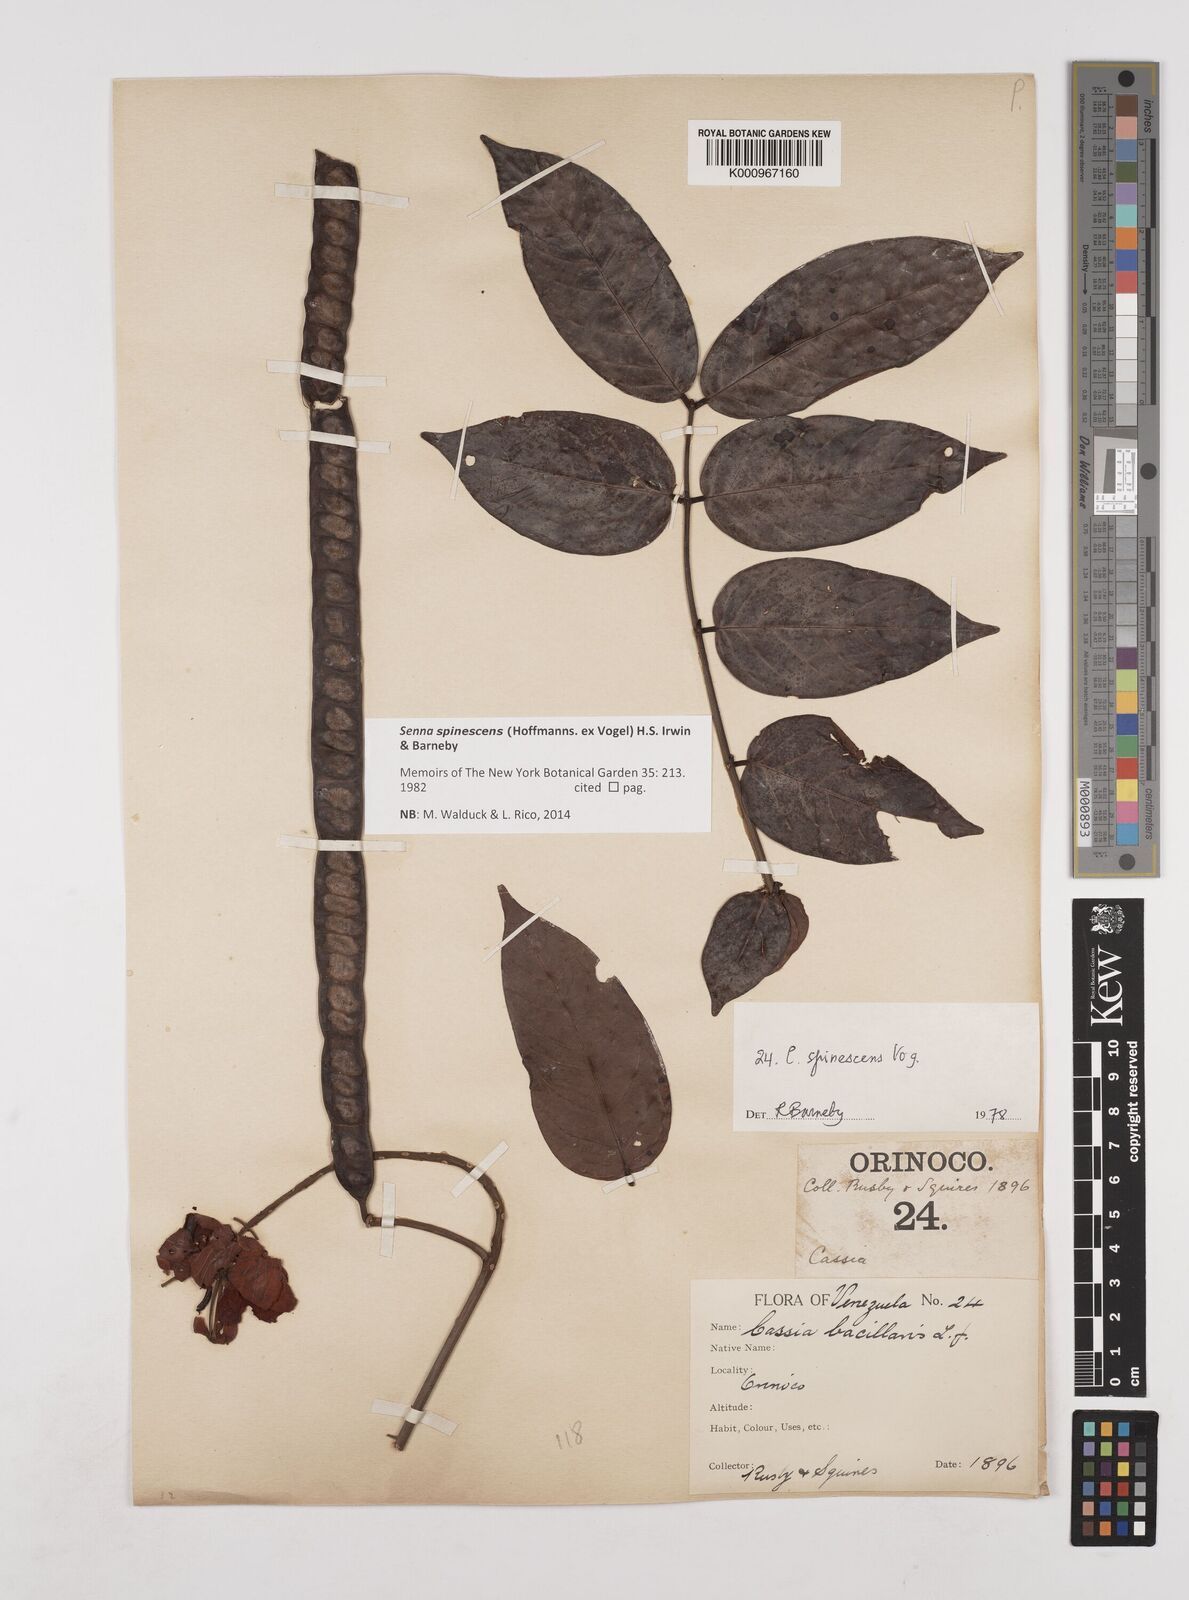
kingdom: Plantae
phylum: Tracheophyta
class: Magnoliopsida
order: Fabales
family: Fabaceae
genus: Senna
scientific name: Senna spinescens
